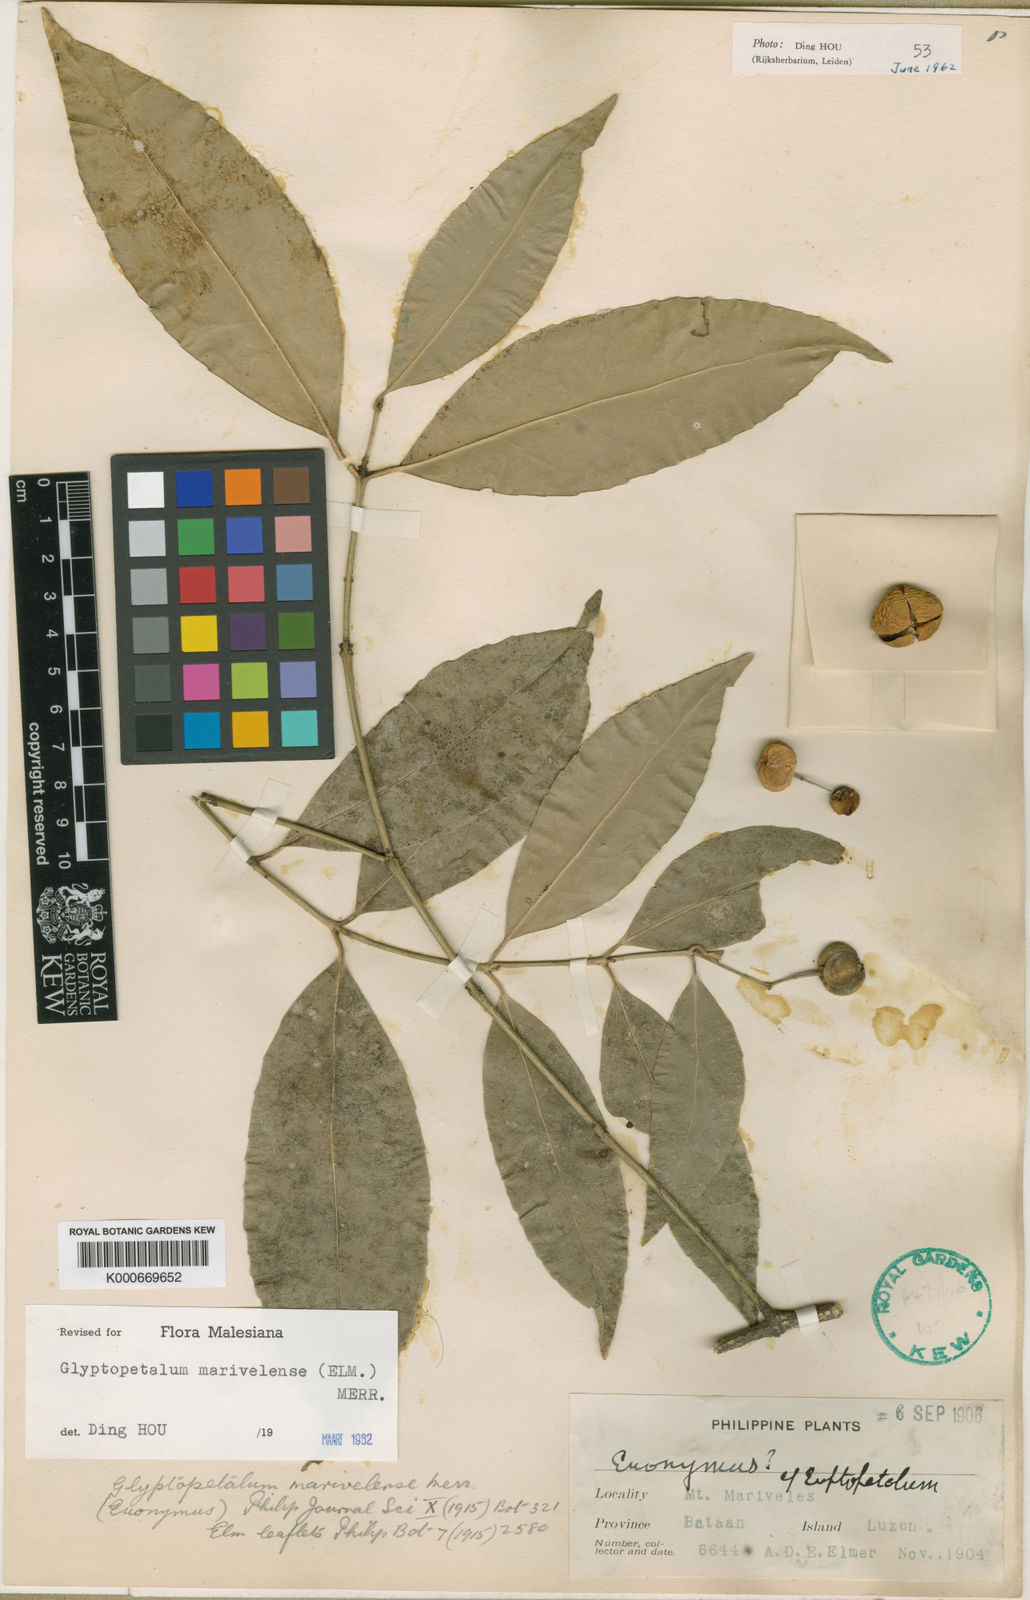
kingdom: Plantae
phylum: Tracheophyta
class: Magnoliopsida
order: Celastrales
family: Celastraceae
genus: Euonymus
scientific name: Euonymus marivelensis
